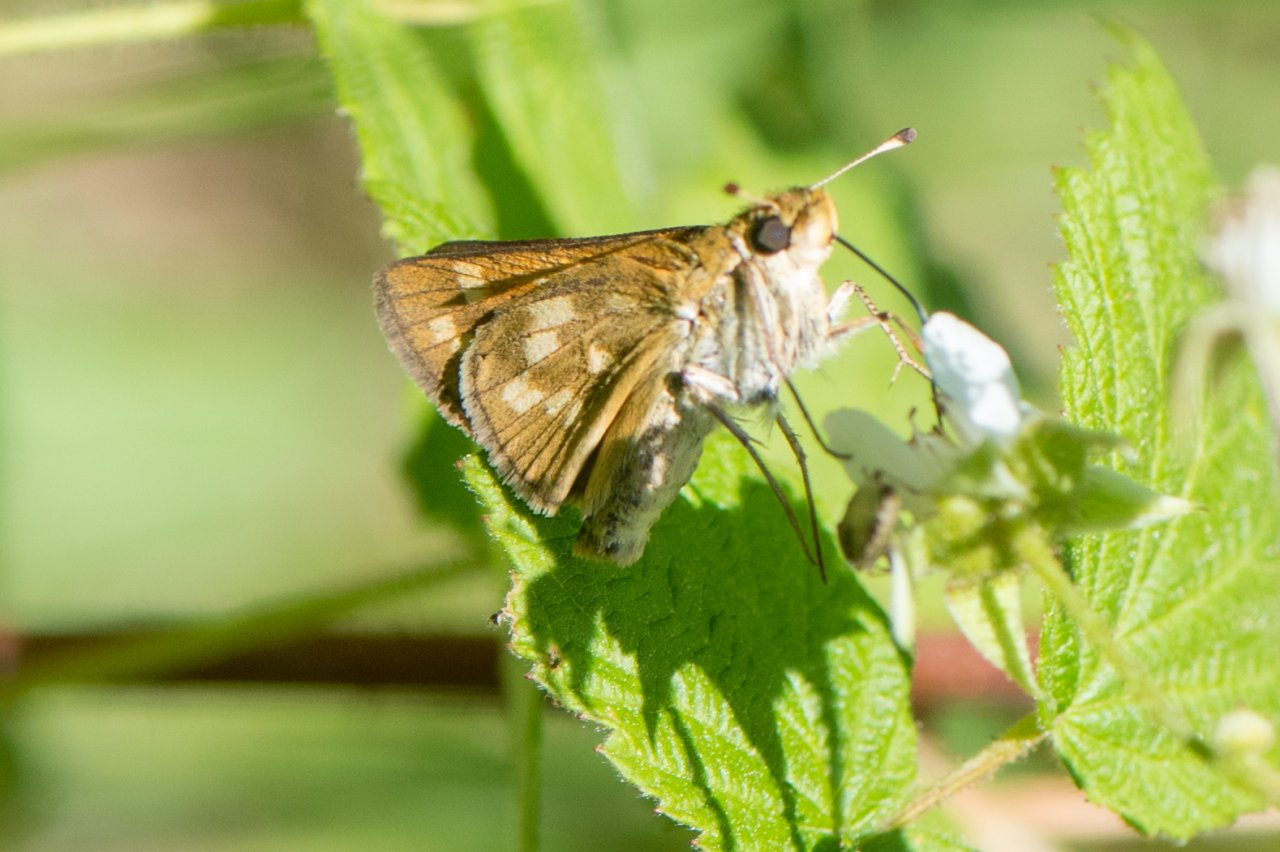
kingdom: Animalia
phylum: Arthropoda
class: Insecta
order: Lepidoptera
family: Hesperiidae
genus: Hesperia
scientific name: Hesperia sassacus
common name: Sassacus Skipper
